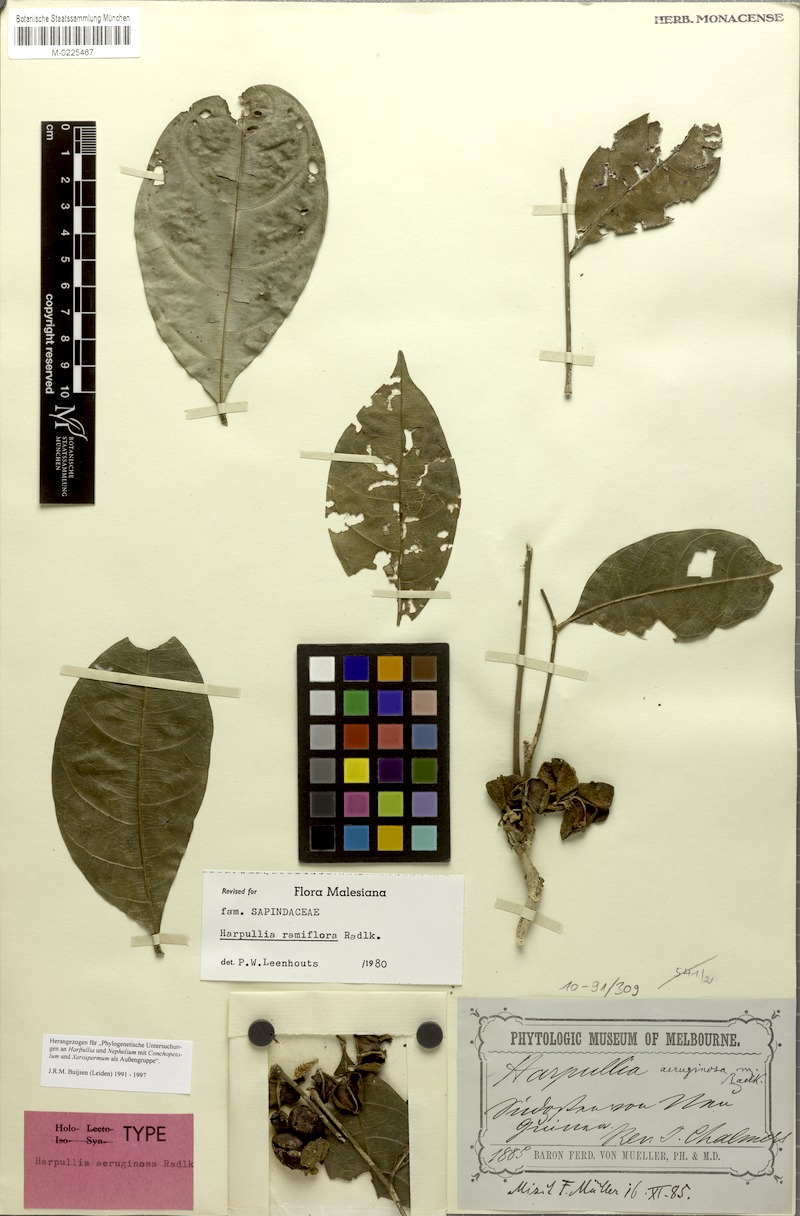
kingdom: Plantae
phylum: Tracheophyta
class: Magnoliopsida
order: Sapindales
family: Sapindaceae
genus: Harpullia
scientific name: Harpullia ramiflora
